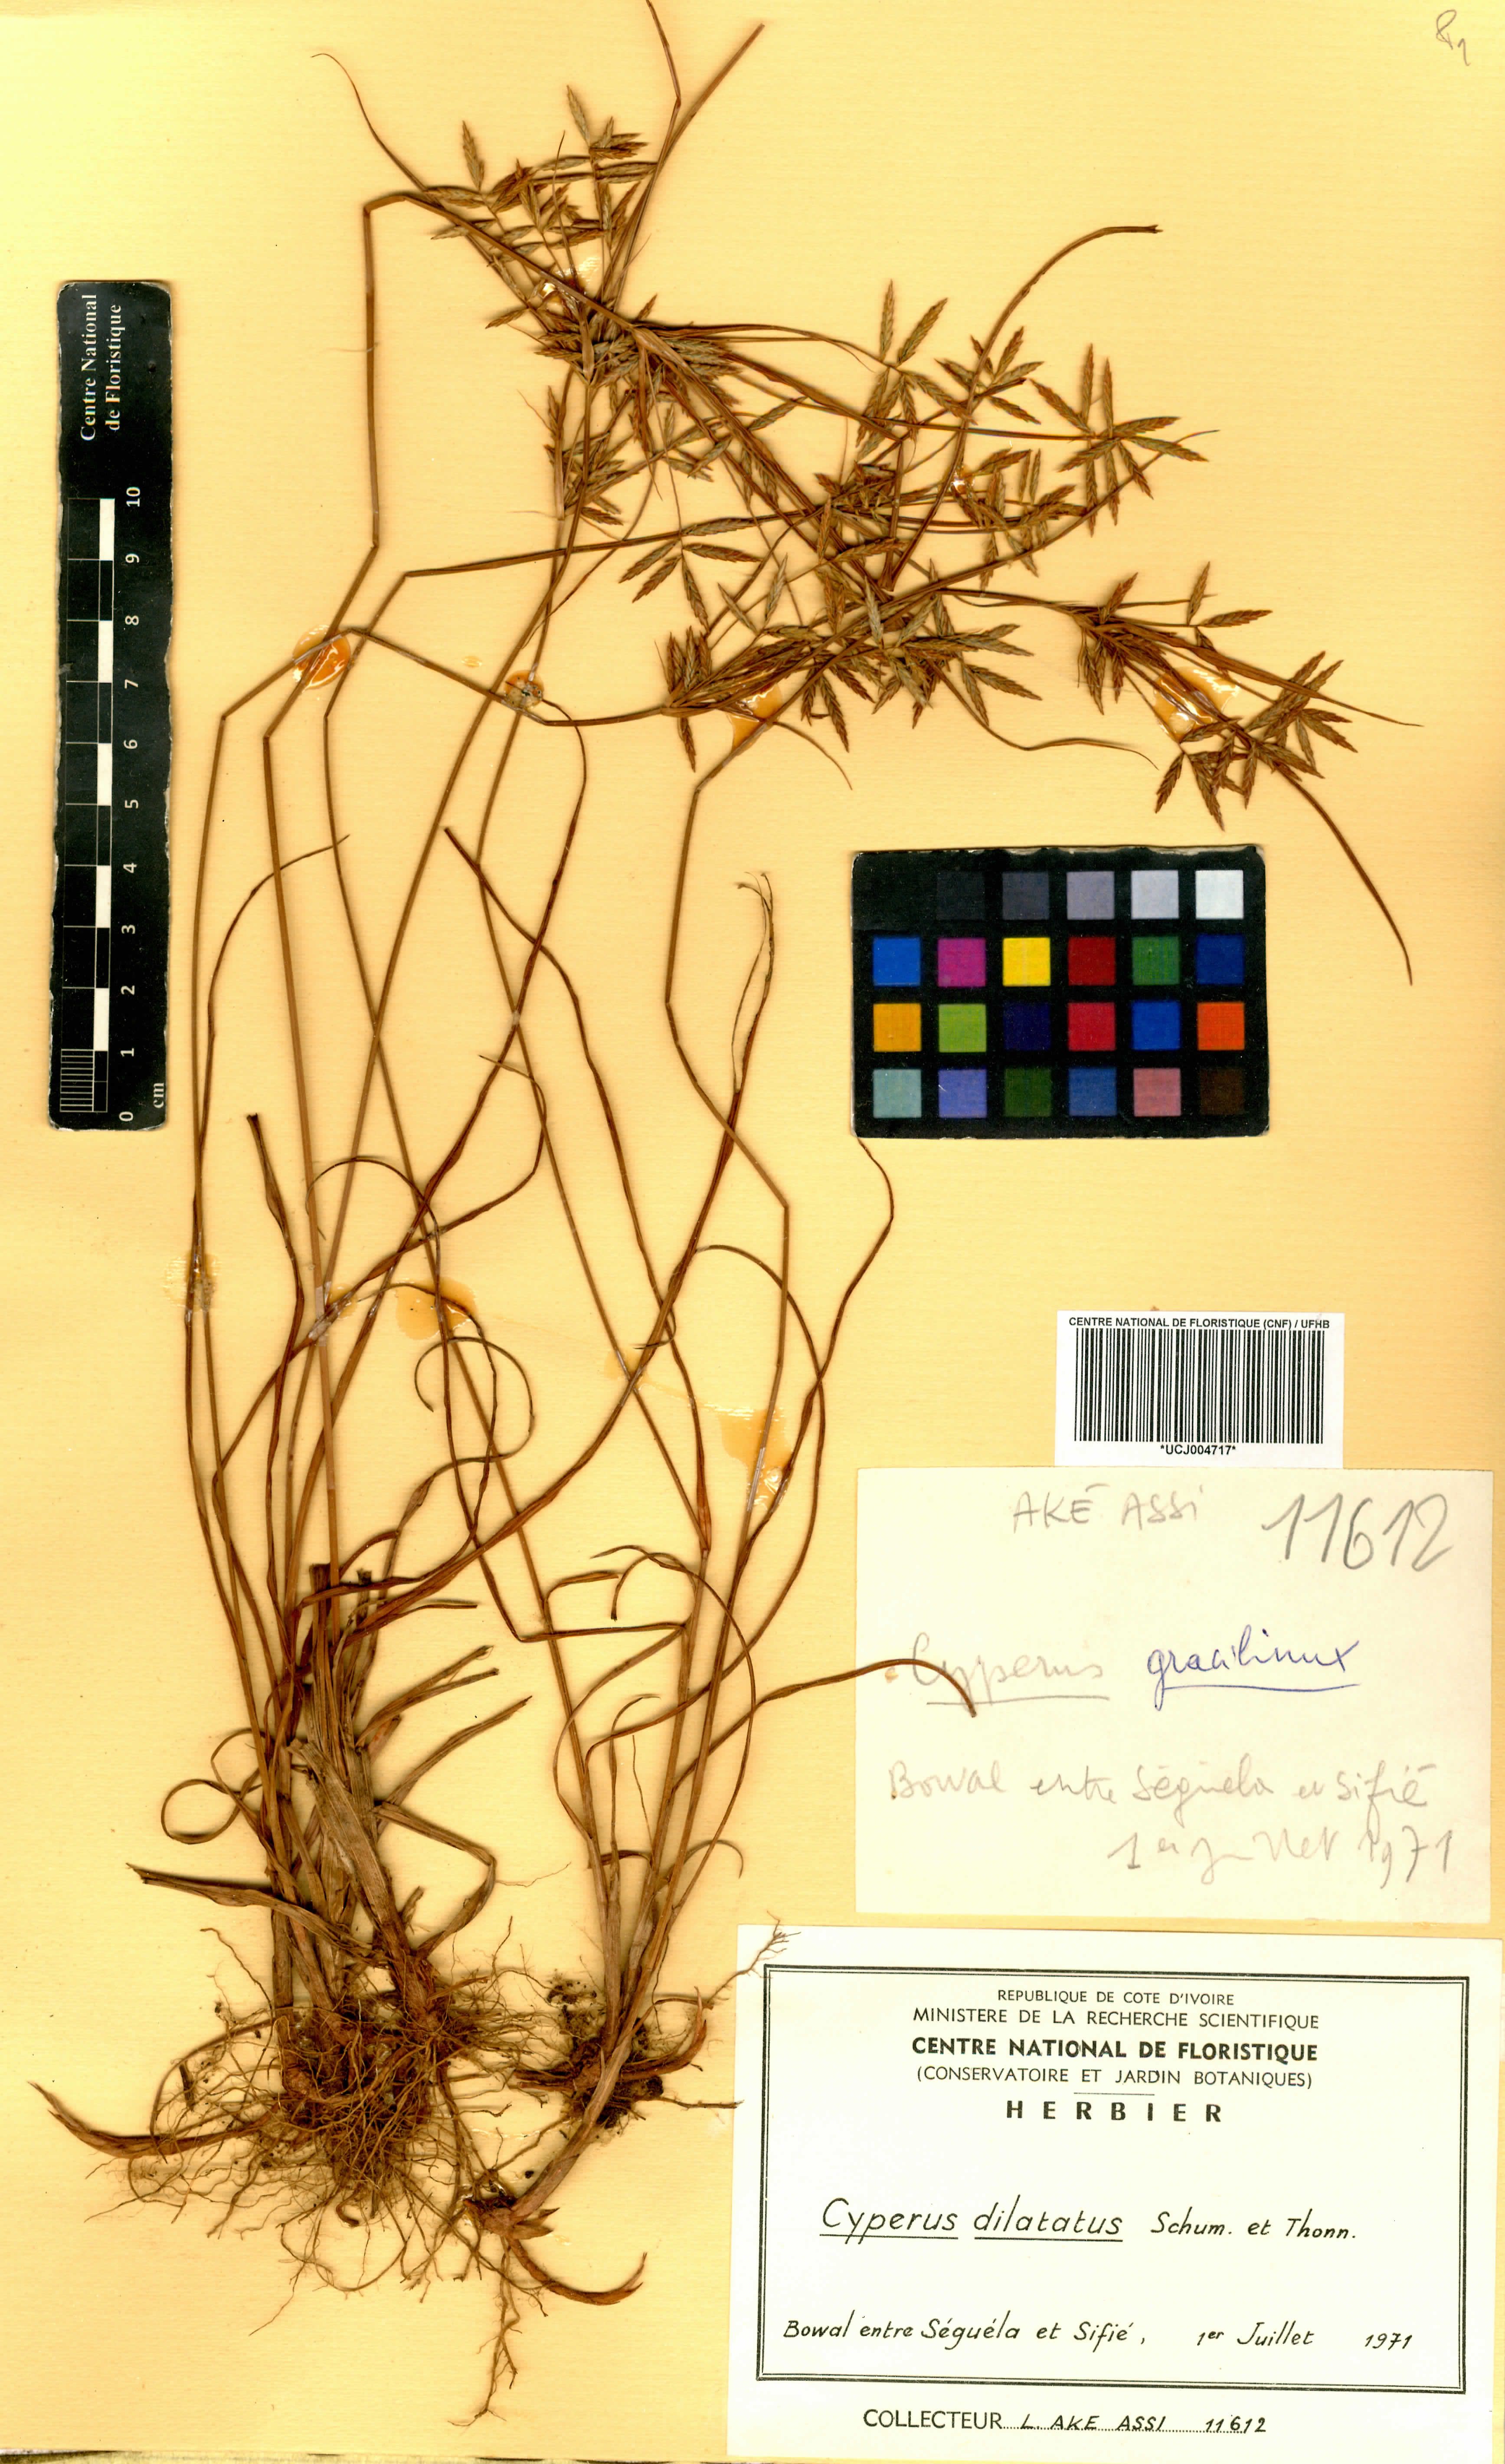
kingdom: Plantae
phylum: Tracheophyta
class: Liliopsida
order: Poales
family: Cyperaceae
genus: Cyperus
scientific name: Cyperus dilatatus
